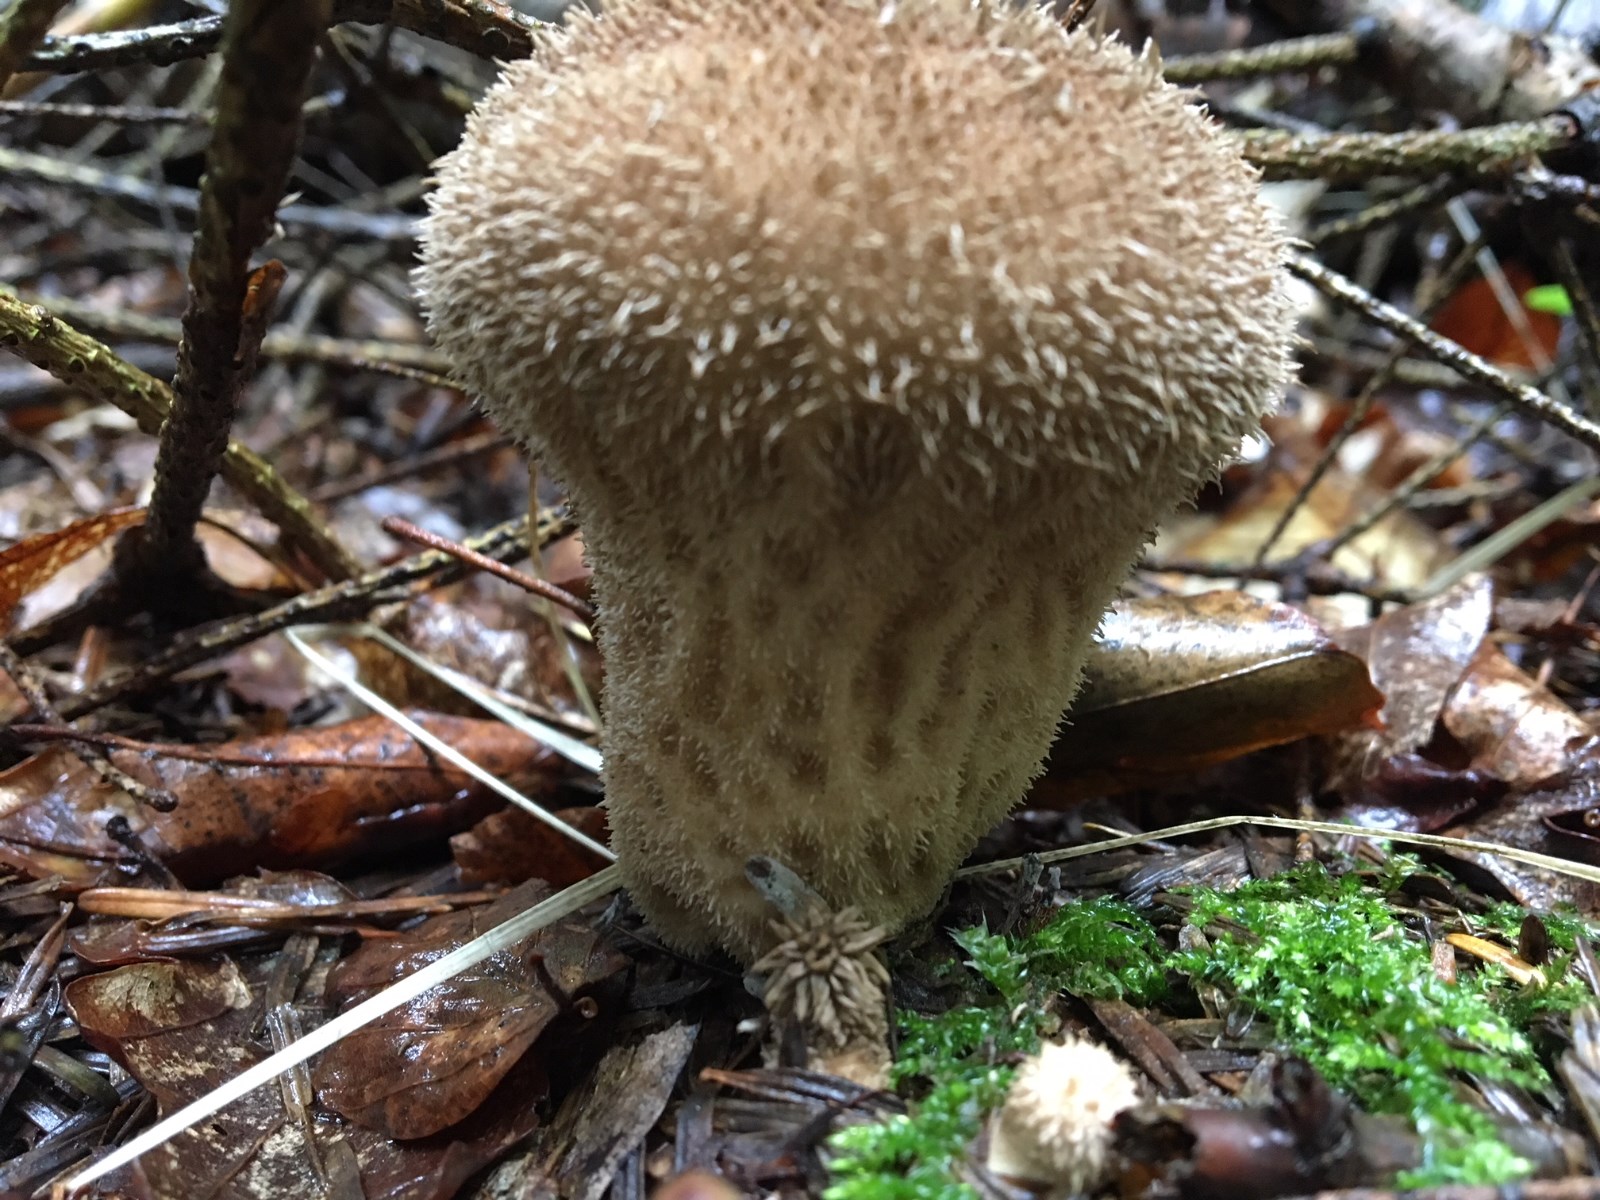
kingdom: Fungi
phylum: Basidiomycota
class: Agaricomycetes
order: Agaricales
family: Lycoperdaceae
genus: Lycoperdon
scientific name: Lycoperdon echinatum
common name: pindsvine-støvbold
